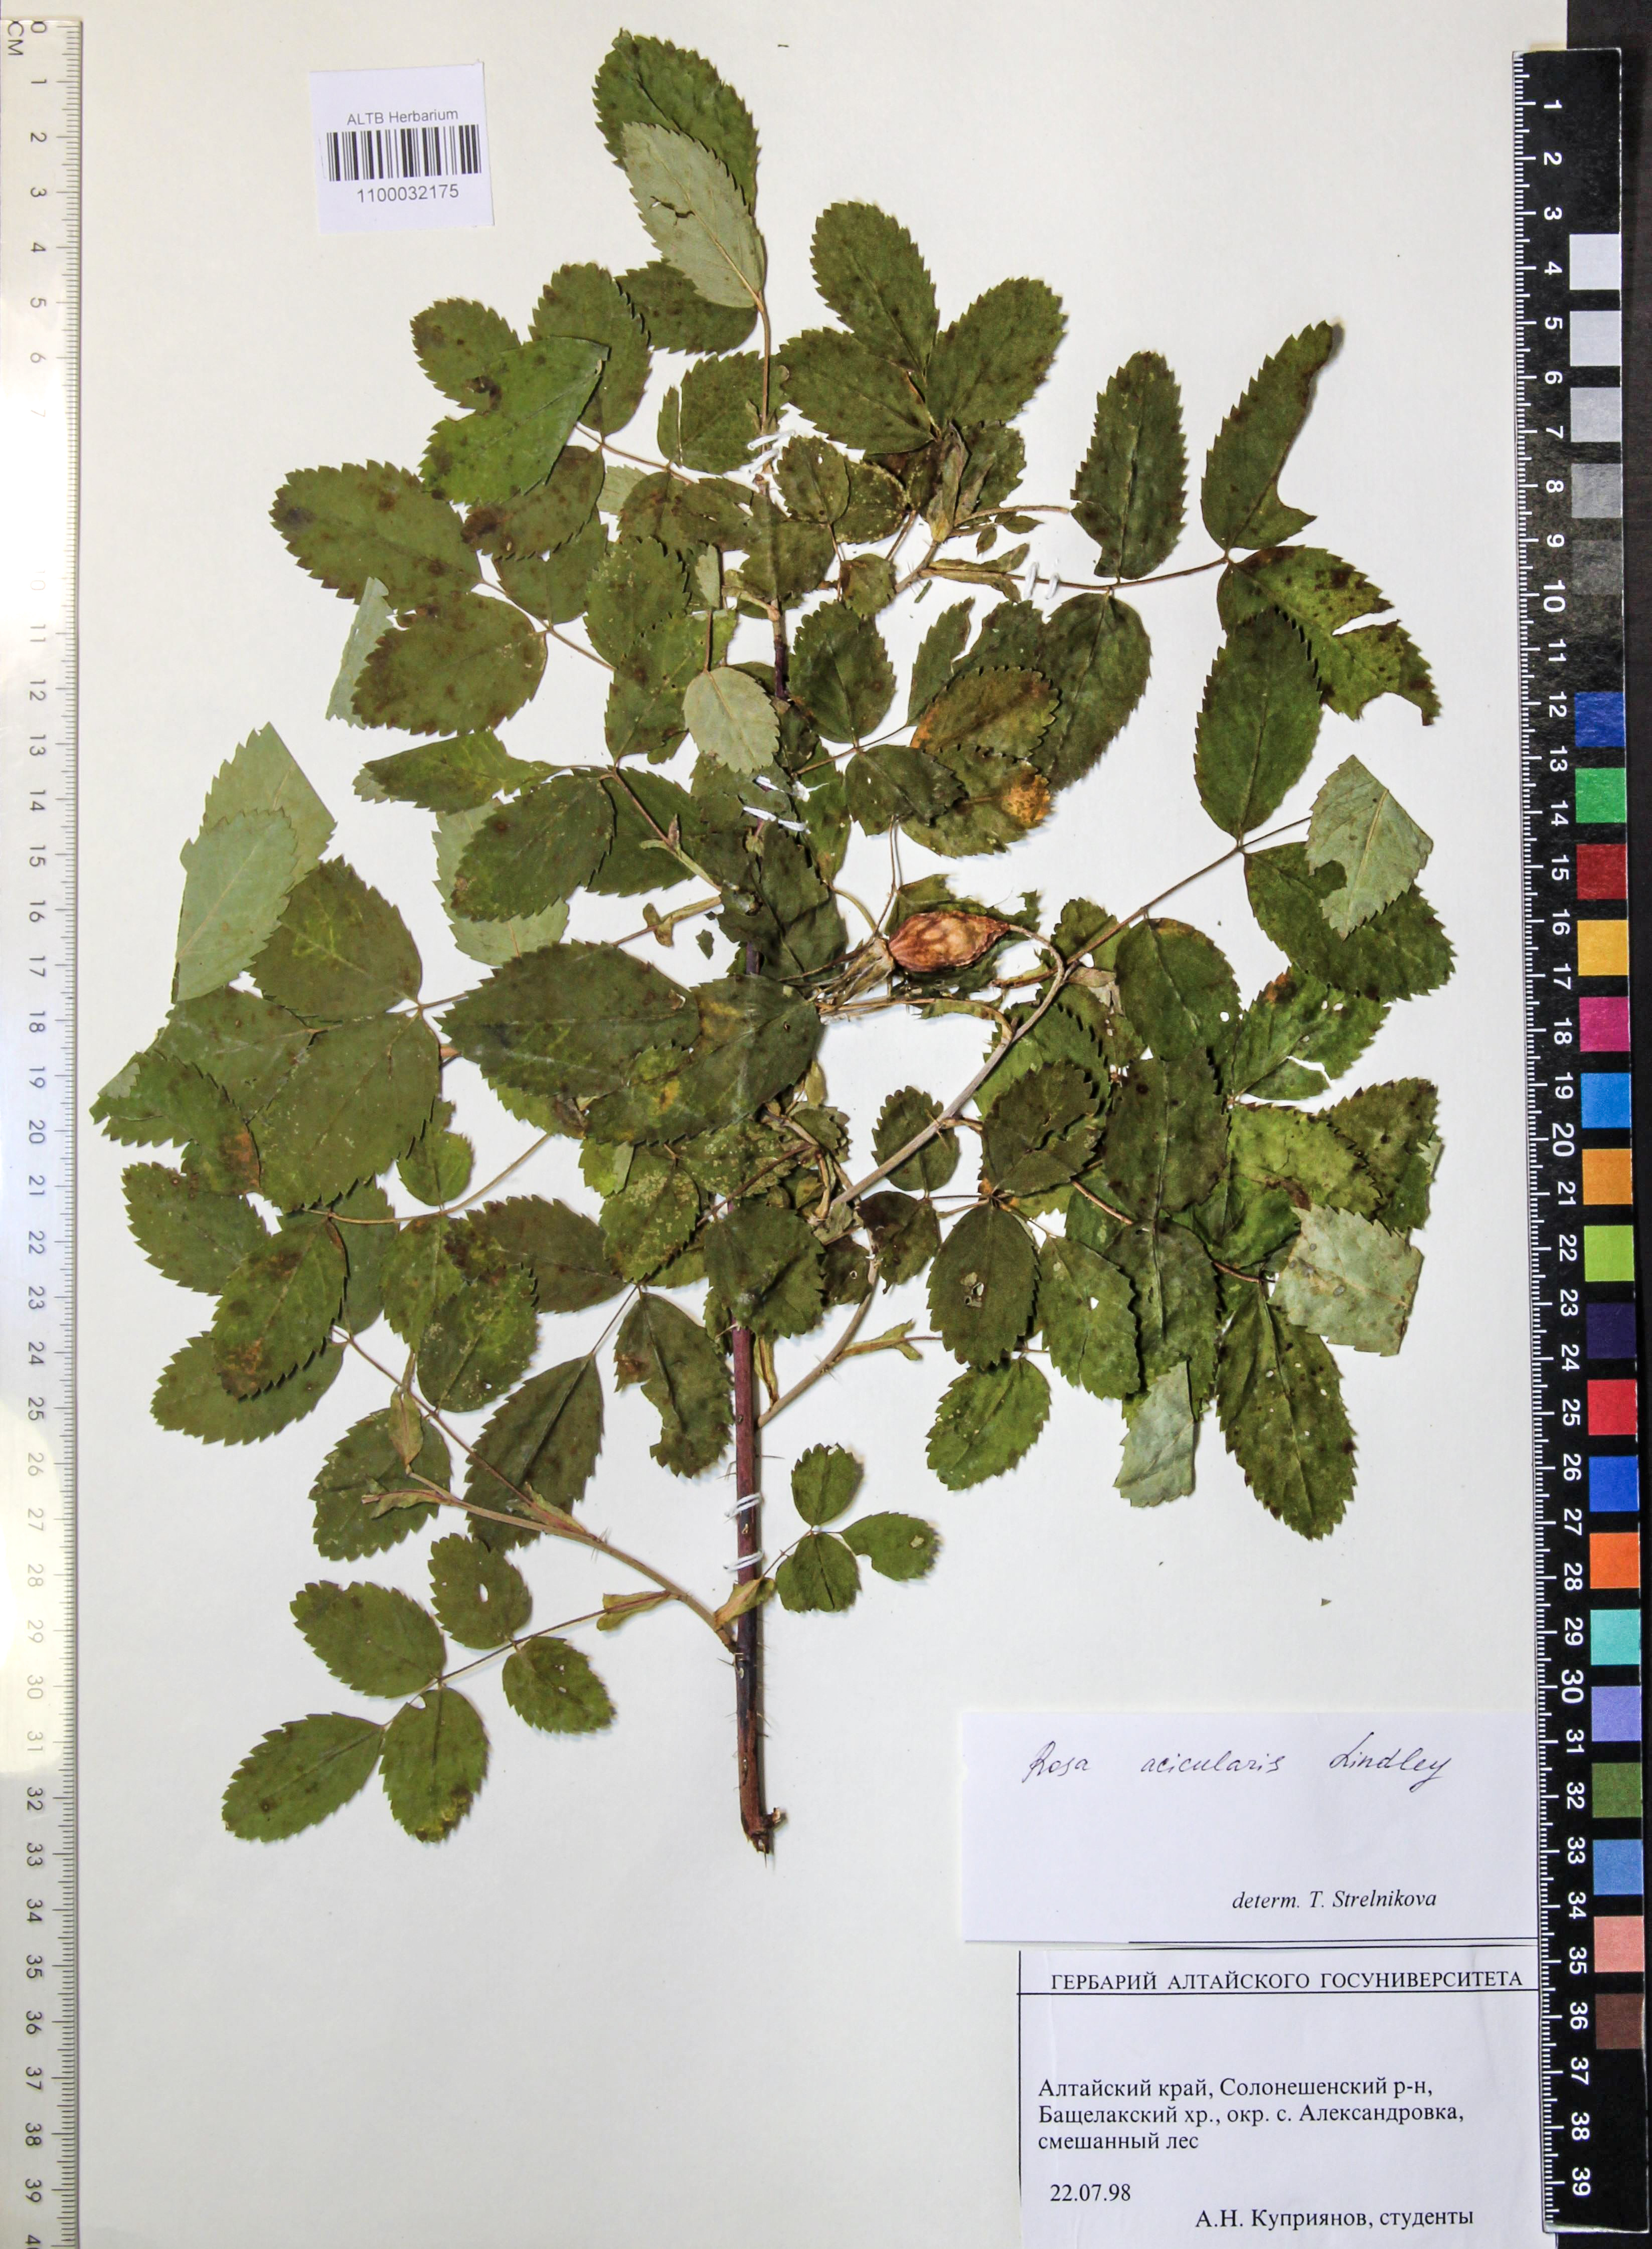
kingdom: Plantae
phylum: Tracheophyta
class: Magnoliopsida
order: Rosales
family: Rosaceae
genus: Rosa
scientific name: Rosa acicularis
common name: Prickly rose
